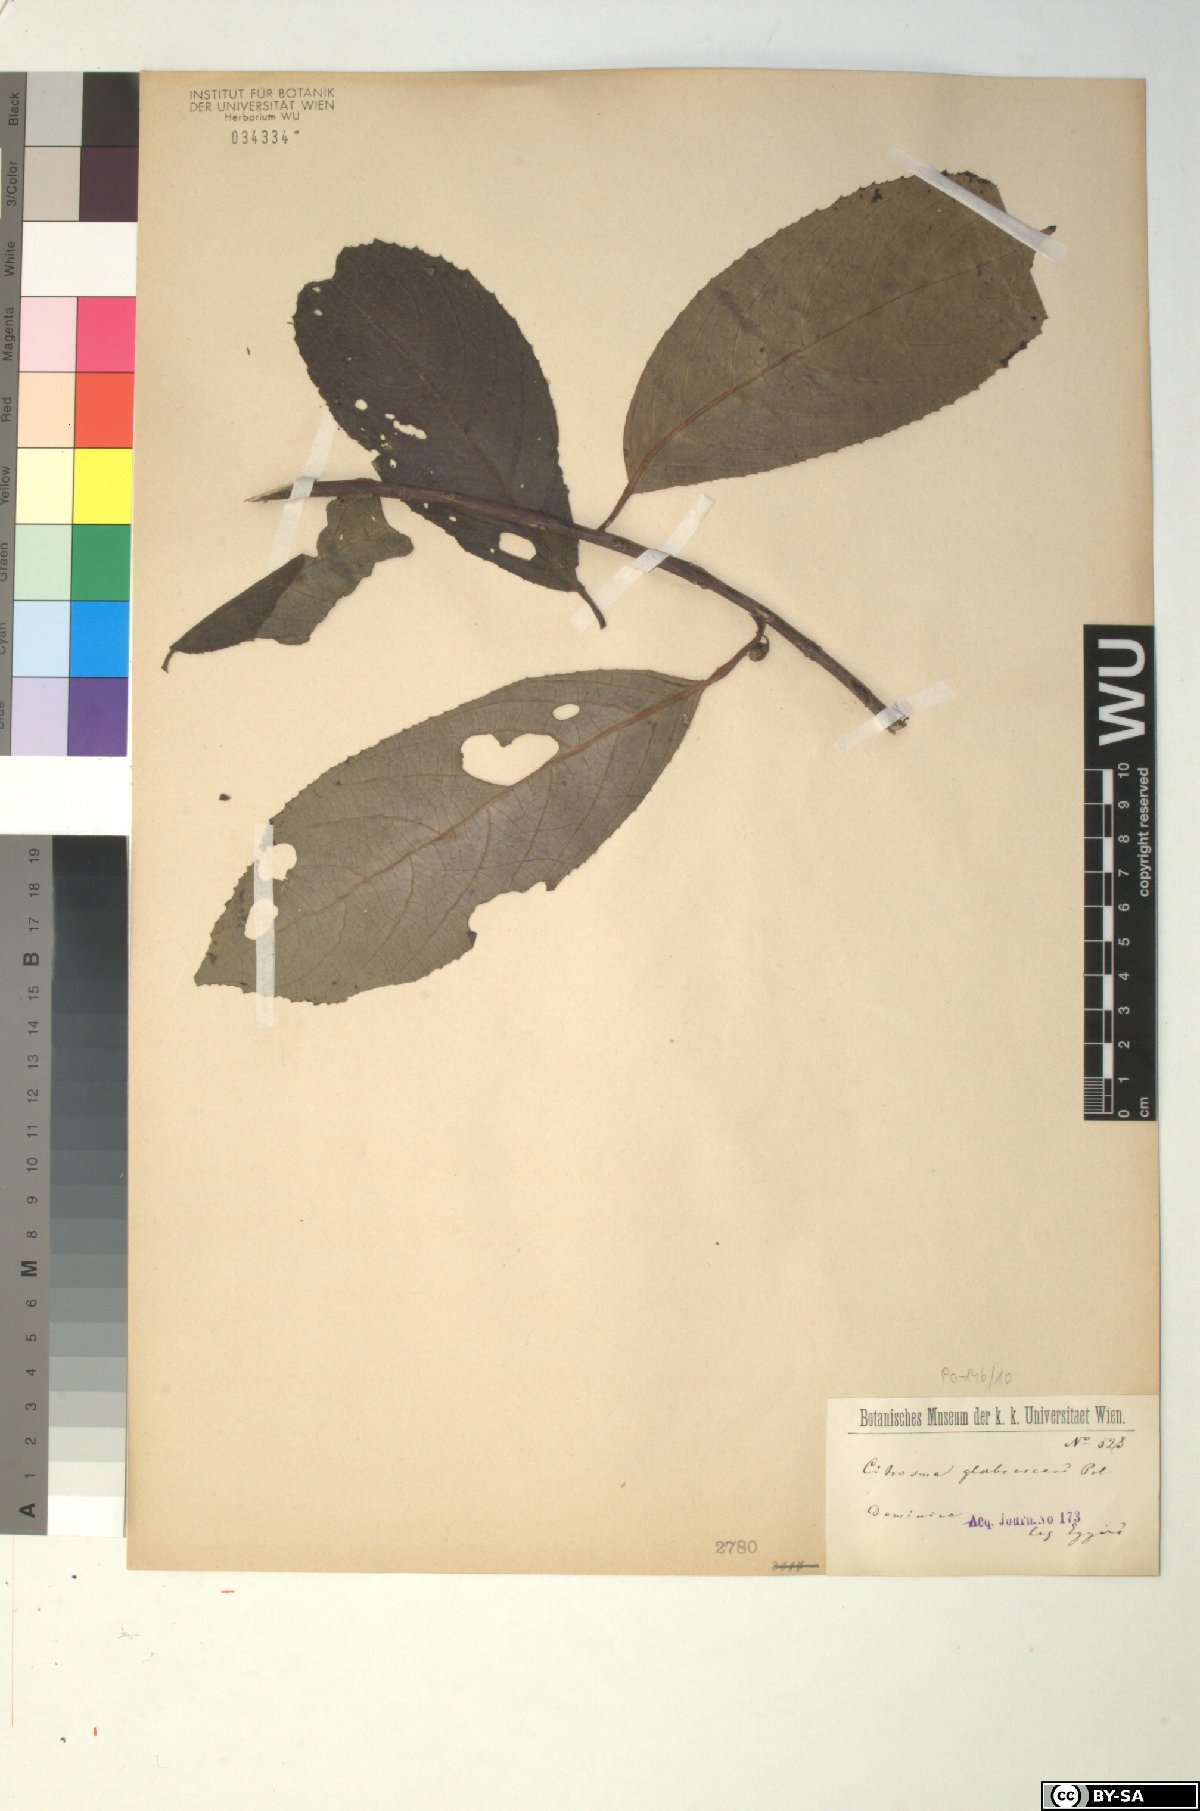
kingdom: Plantae
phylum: Tracheophyta
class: Magnoliopsida
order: Laurales
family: Siparunaceae
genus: Siparuna
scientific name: Siparuna glabrescens
